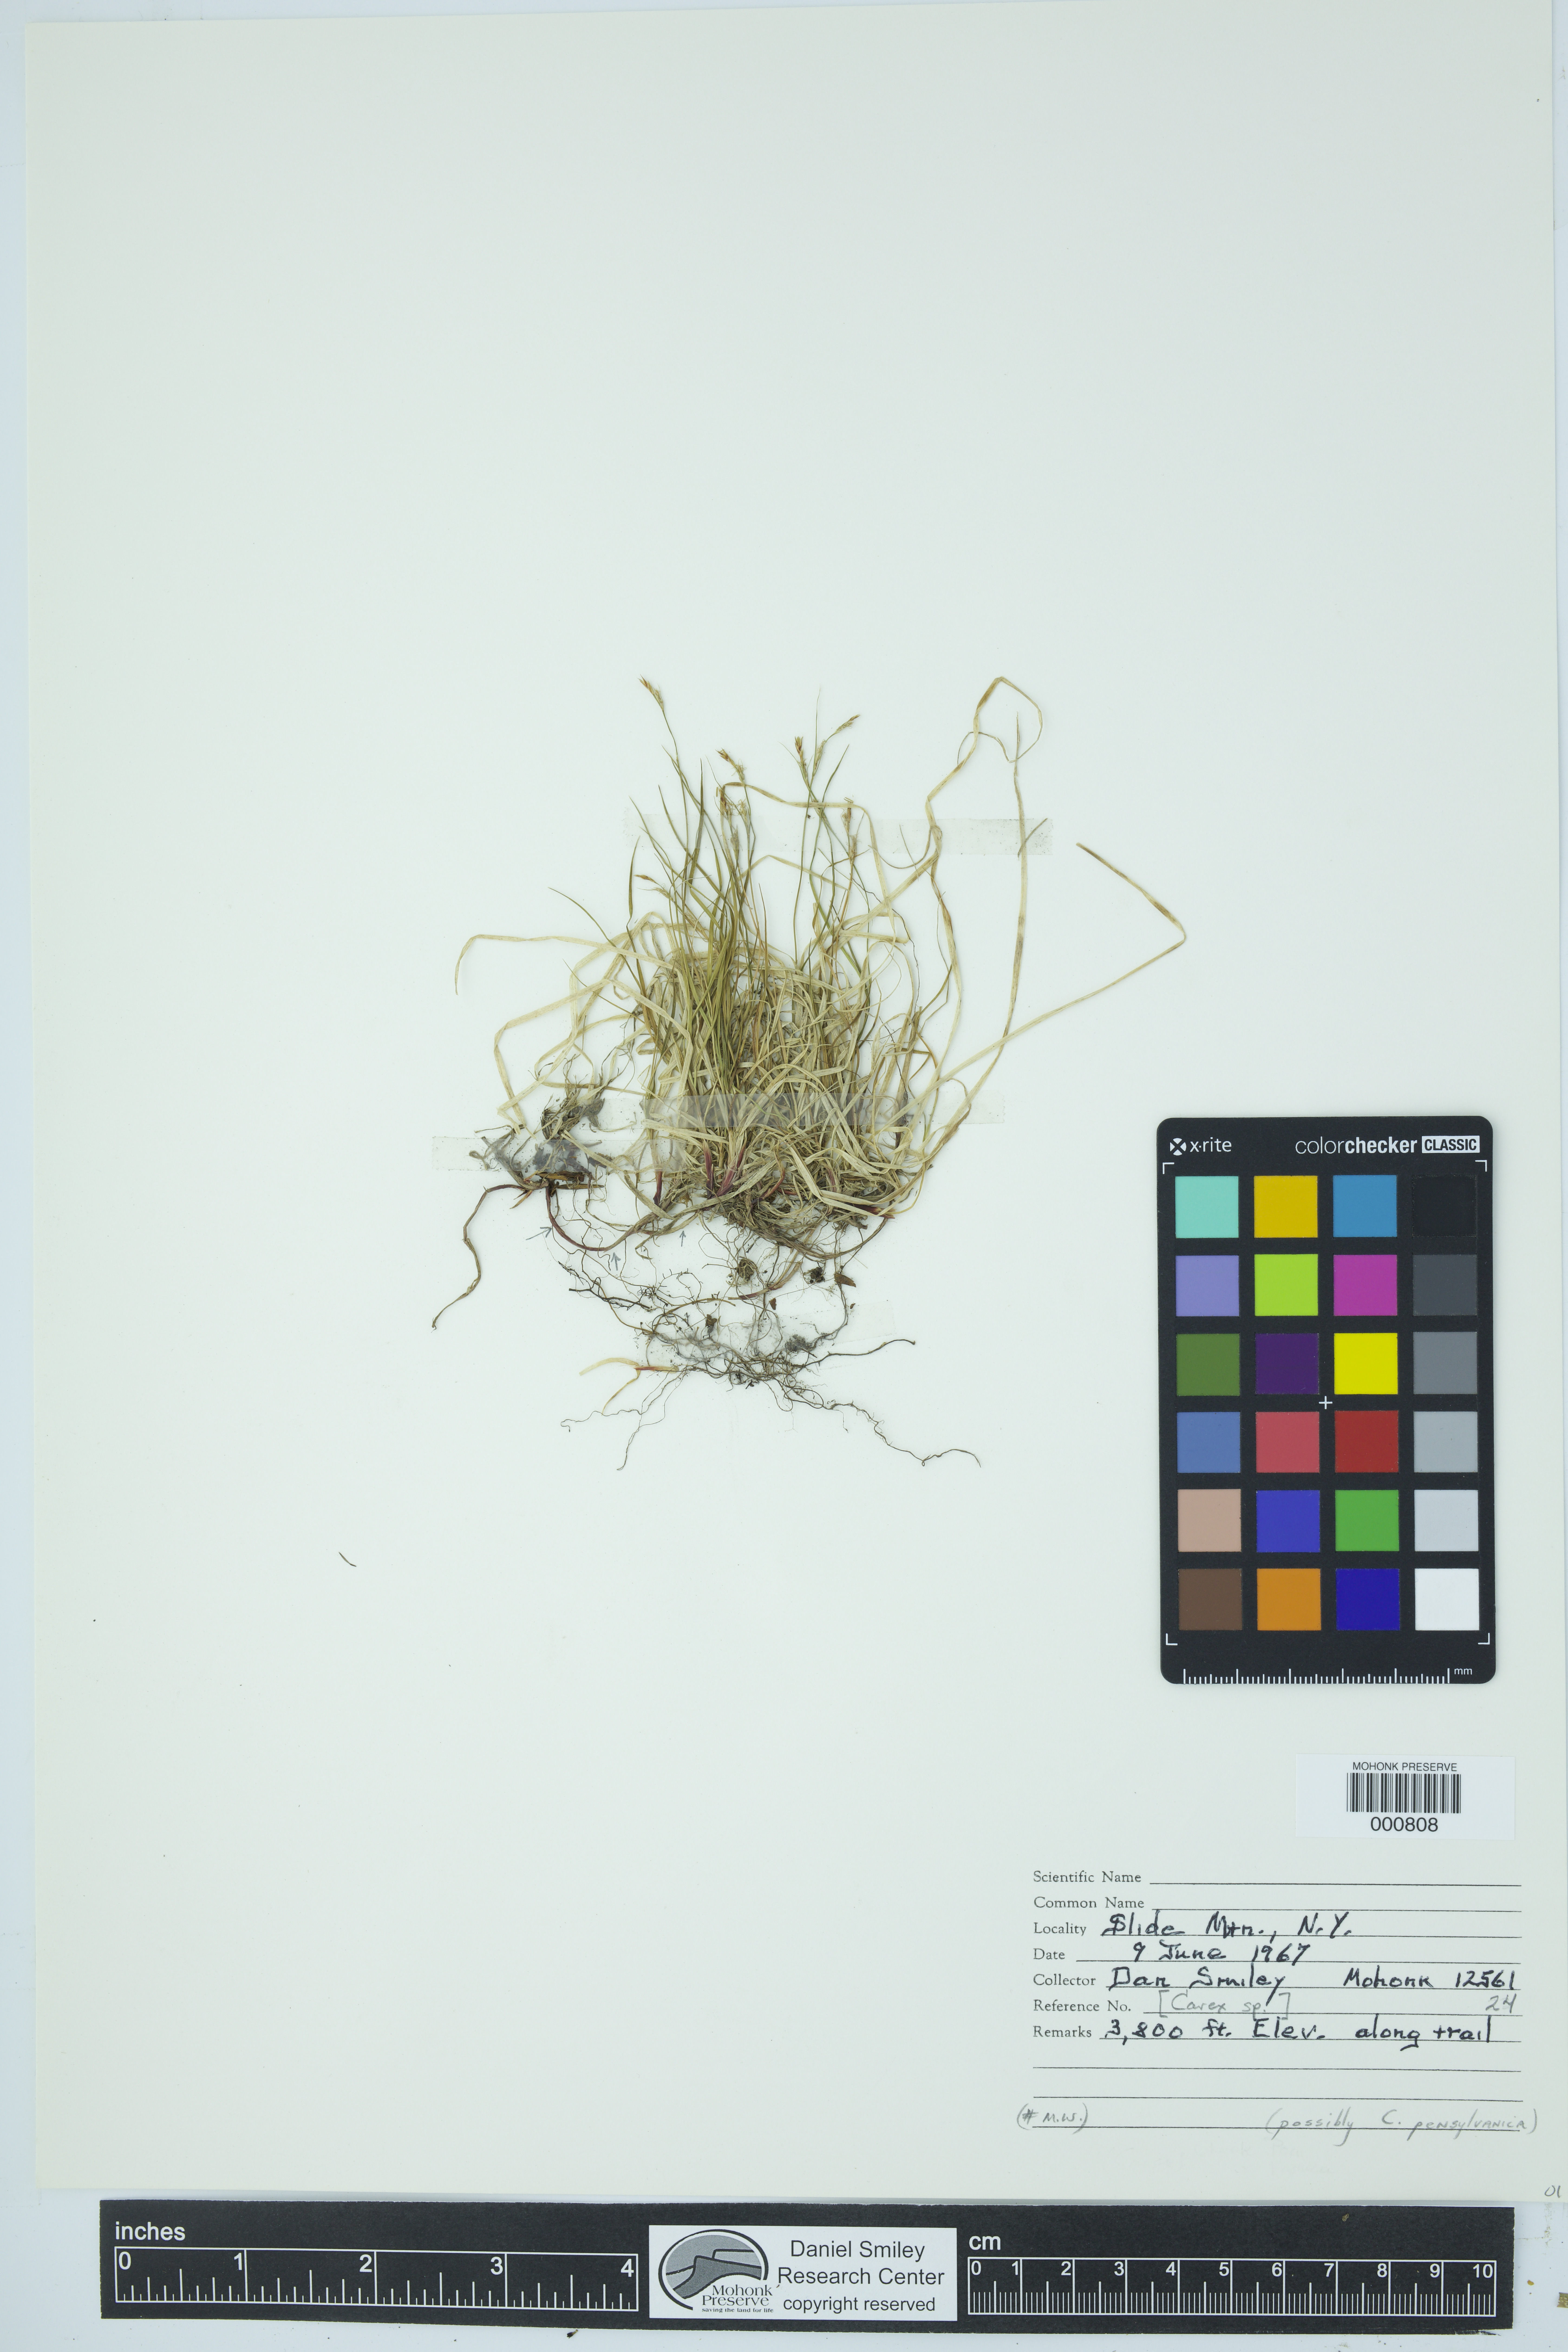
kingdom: Plantae
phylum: Tracheophyta
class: Liliopsida
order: Poales
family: Cyperaceae
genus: Carex
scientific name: Carex pensylvanica
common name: Common oak sedge
